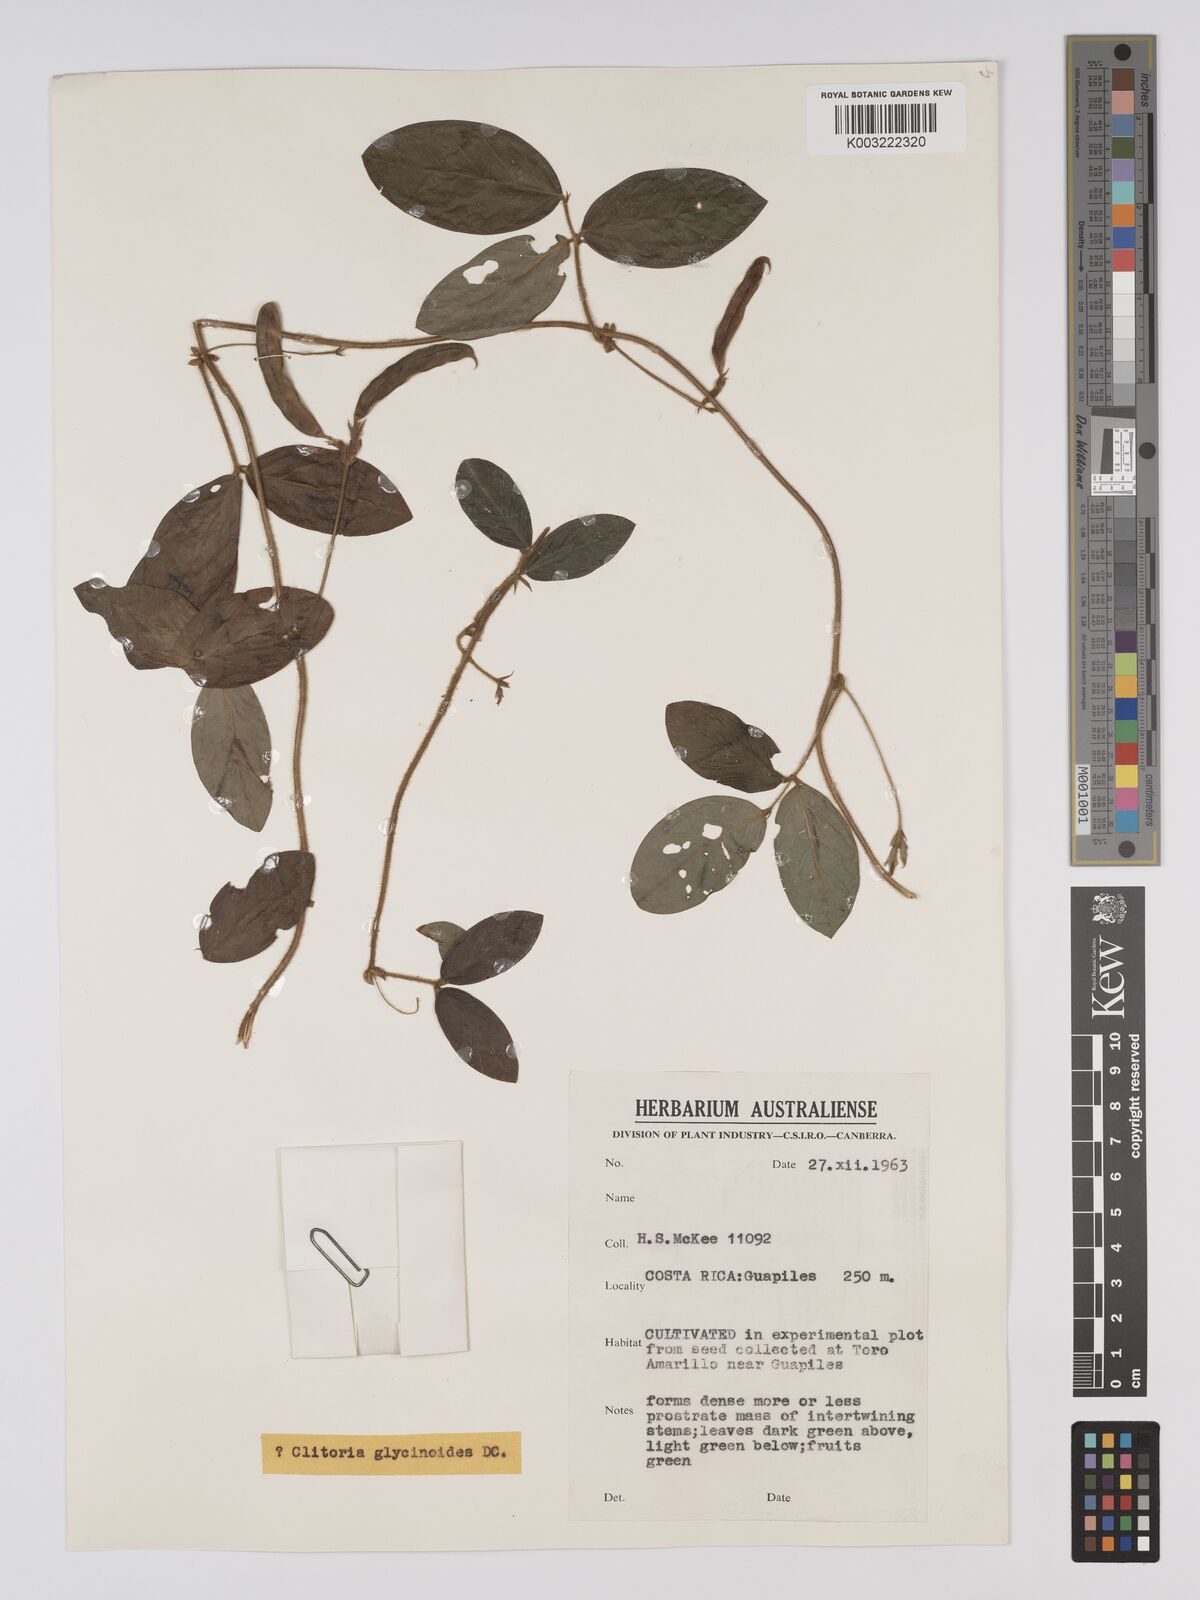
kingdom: Plantae
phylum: Tracheophyta
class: Magnoliopsida
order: Fabales
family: Fabaceae
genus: Clitoria
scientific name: Clitoria falcata
